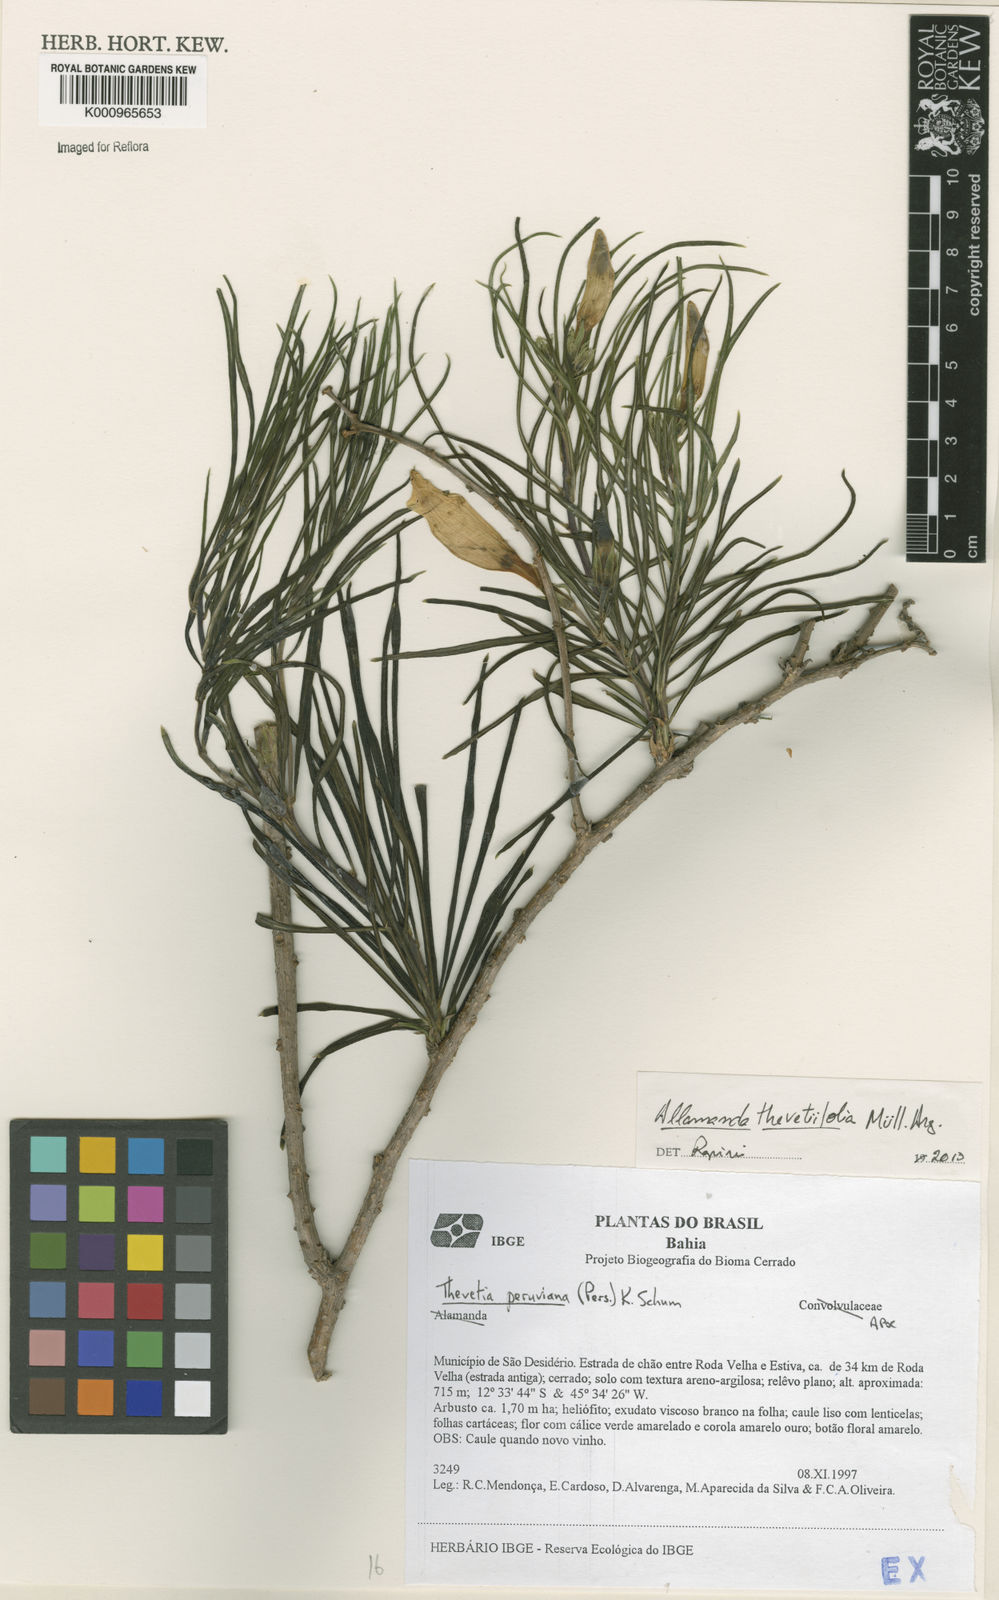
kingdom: Plantae
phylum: Tracheophyta
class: Magnoliopsida
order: Gentianales
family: Apocynaceae
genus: Allamanda
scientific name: Allamanda
